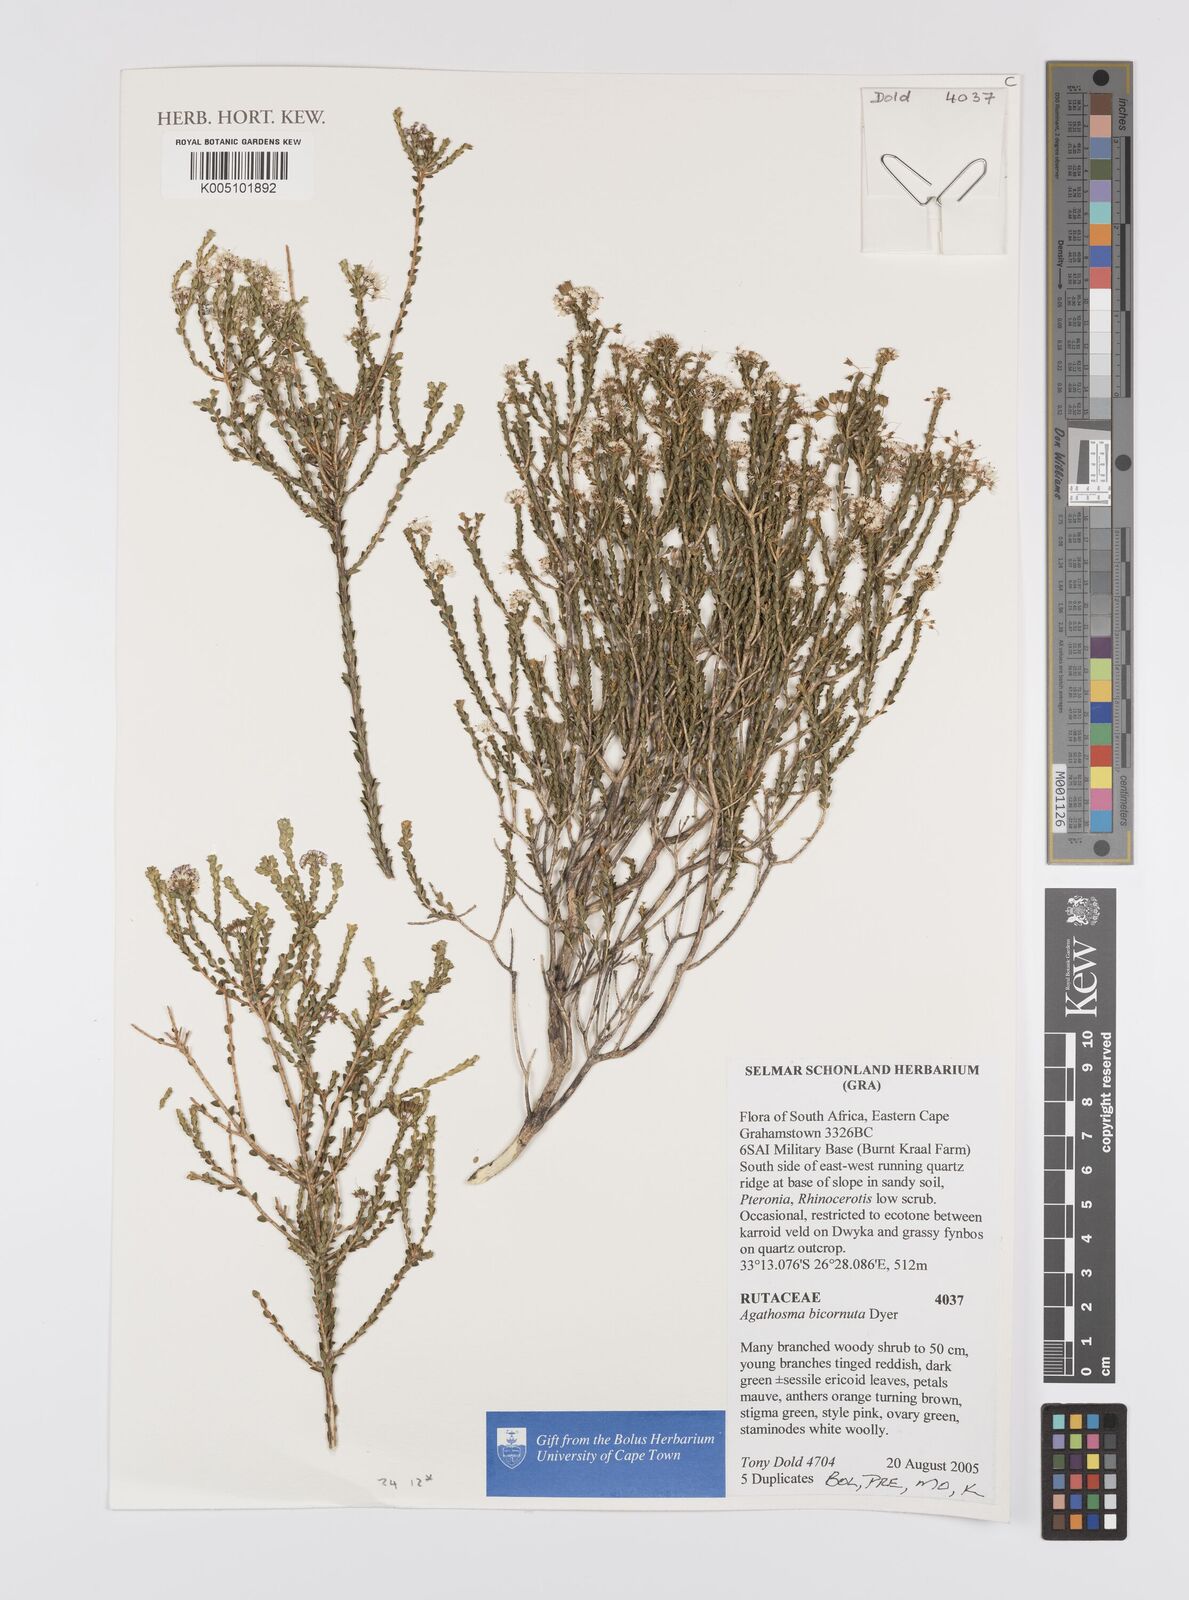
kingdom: Plantae
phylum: Tracheophyta
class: Magnoliopsida
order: Sapindales
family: Rutaceae
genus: Agathosma
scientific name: Agathosma bicornuta
